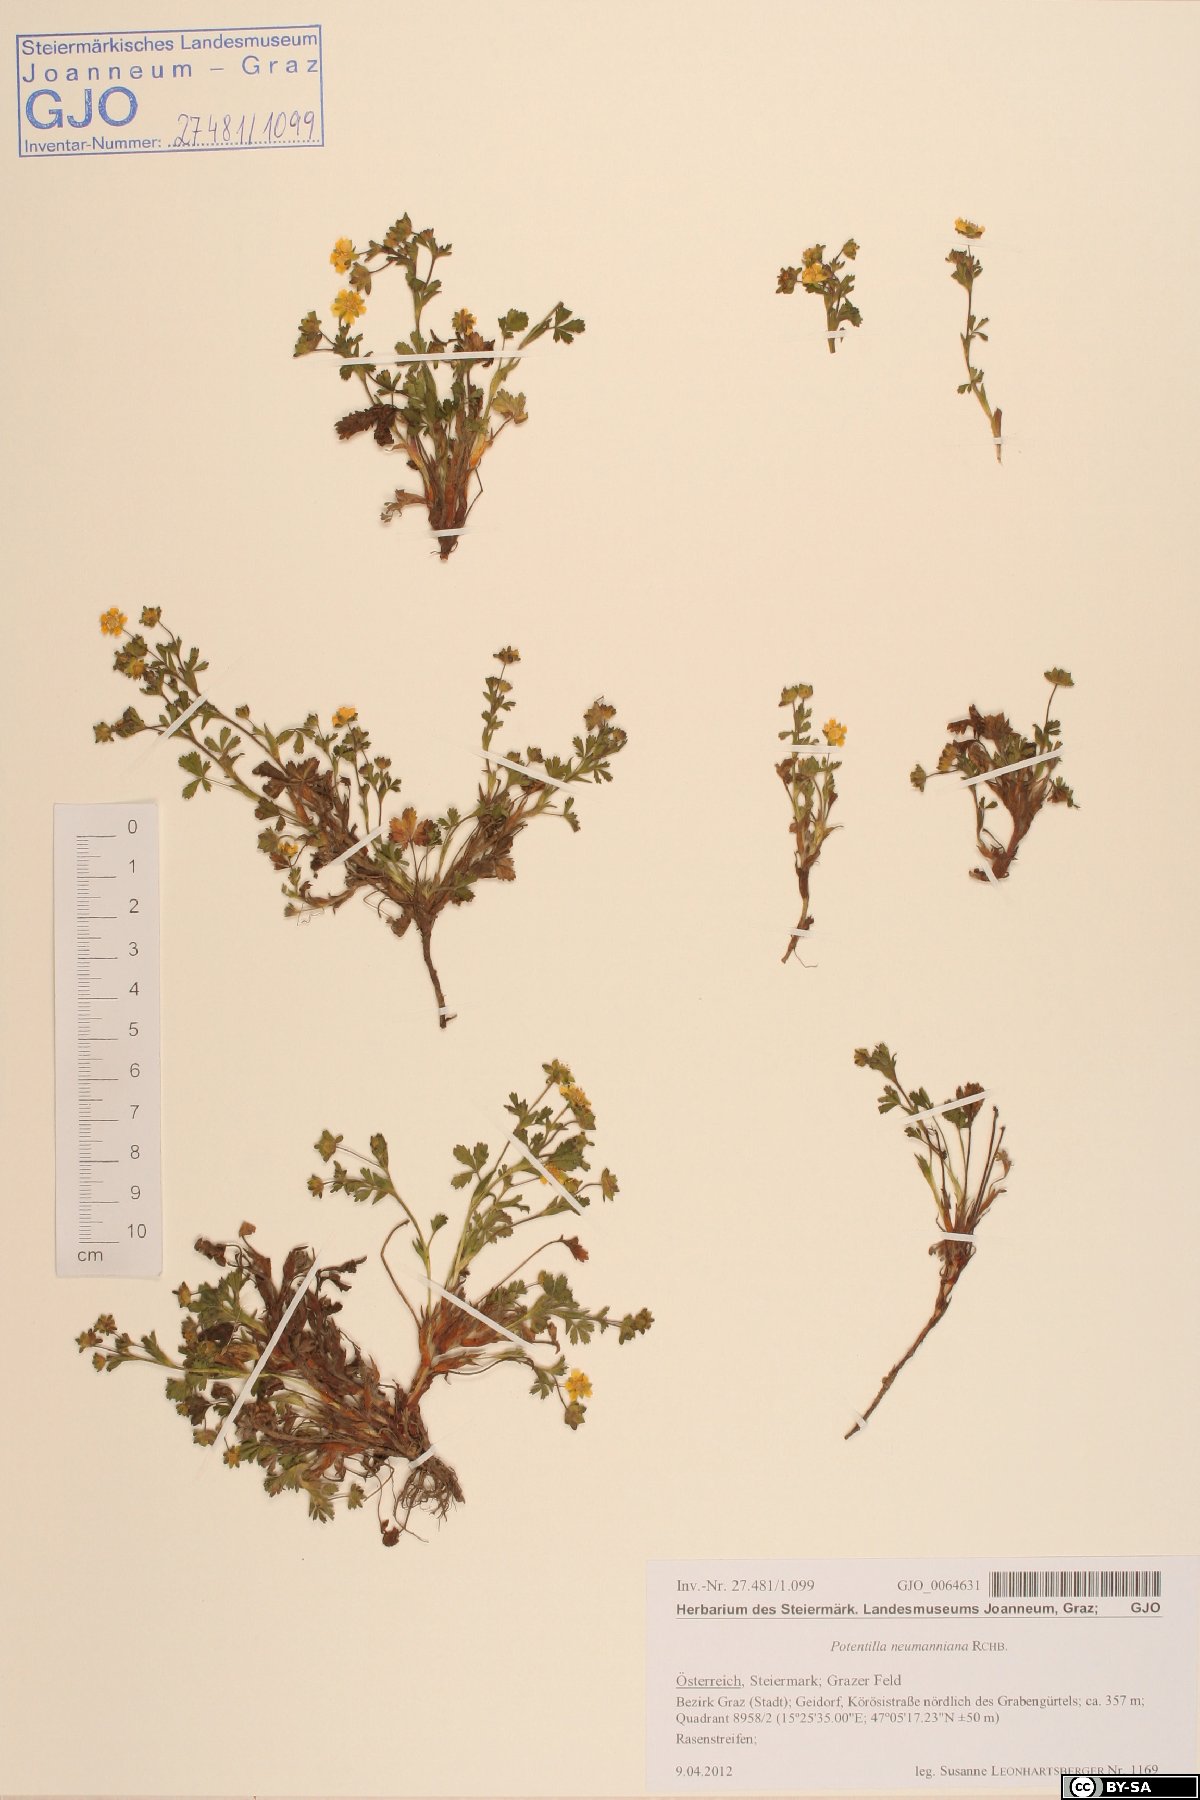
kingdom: Plantae
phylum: Tracheophyta
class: Magnoliopsida
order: Rosales
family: Rosaceae
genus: Potentilla
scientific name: Potentilla heptaphylla
